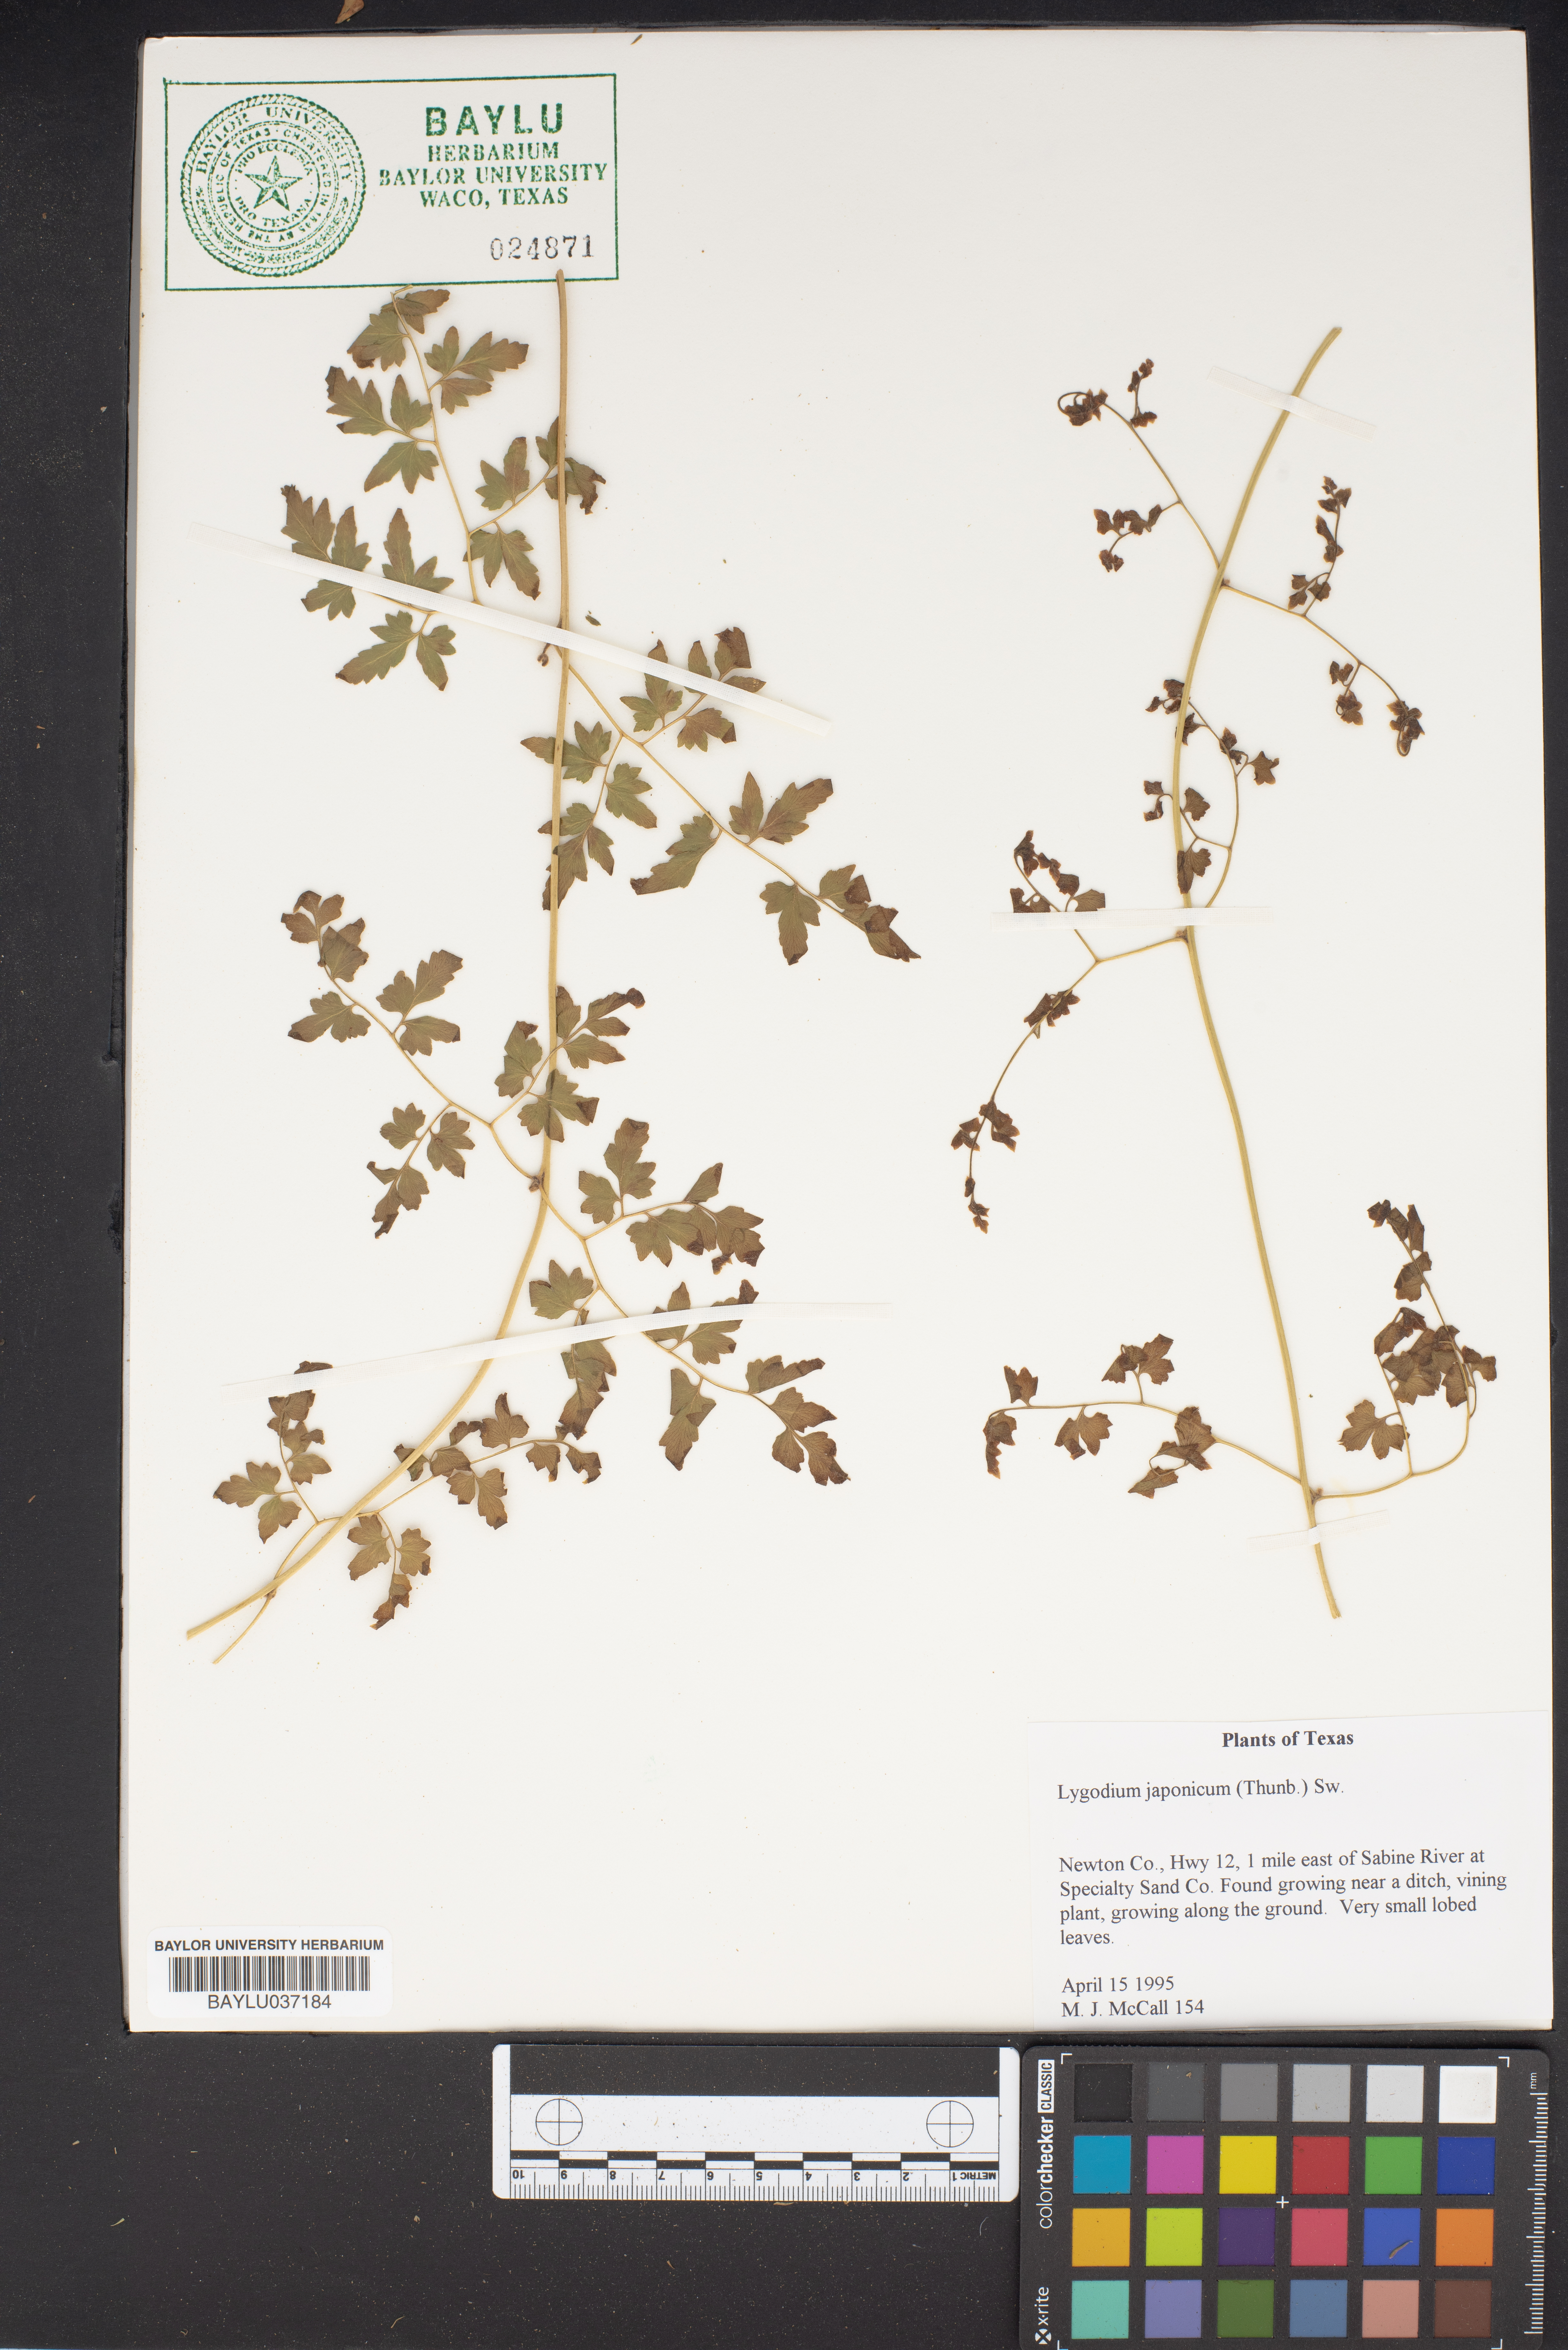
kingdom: Plantae
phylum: Tracheophyta
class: Polypodiopsida
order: Schizaeales
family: Lygodiaceae
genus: Lygodium
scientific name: Lygodium japonicum
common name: Japanese climbing fern
